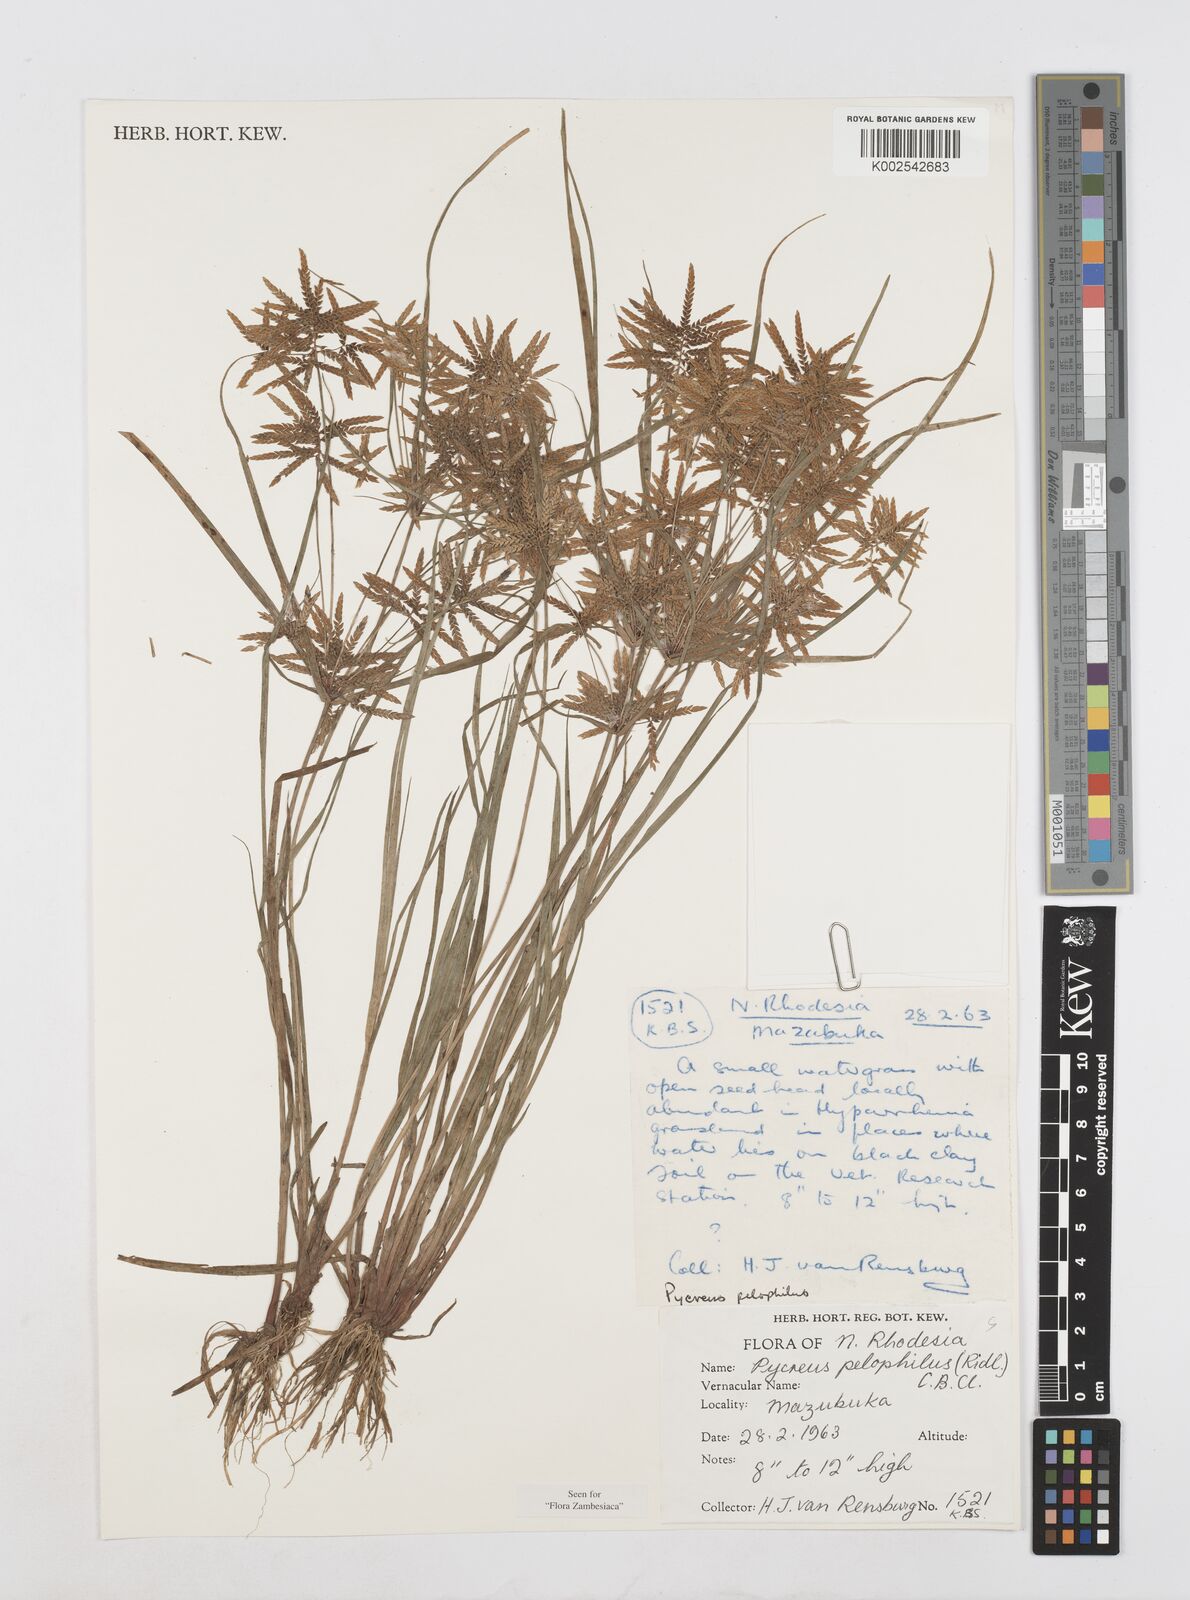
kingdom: Plantae
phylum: Tracheophyta
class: Liliopsida
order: Poales
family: Cyperaceae
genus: Cyperus
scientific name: Cyperus pelophilus
